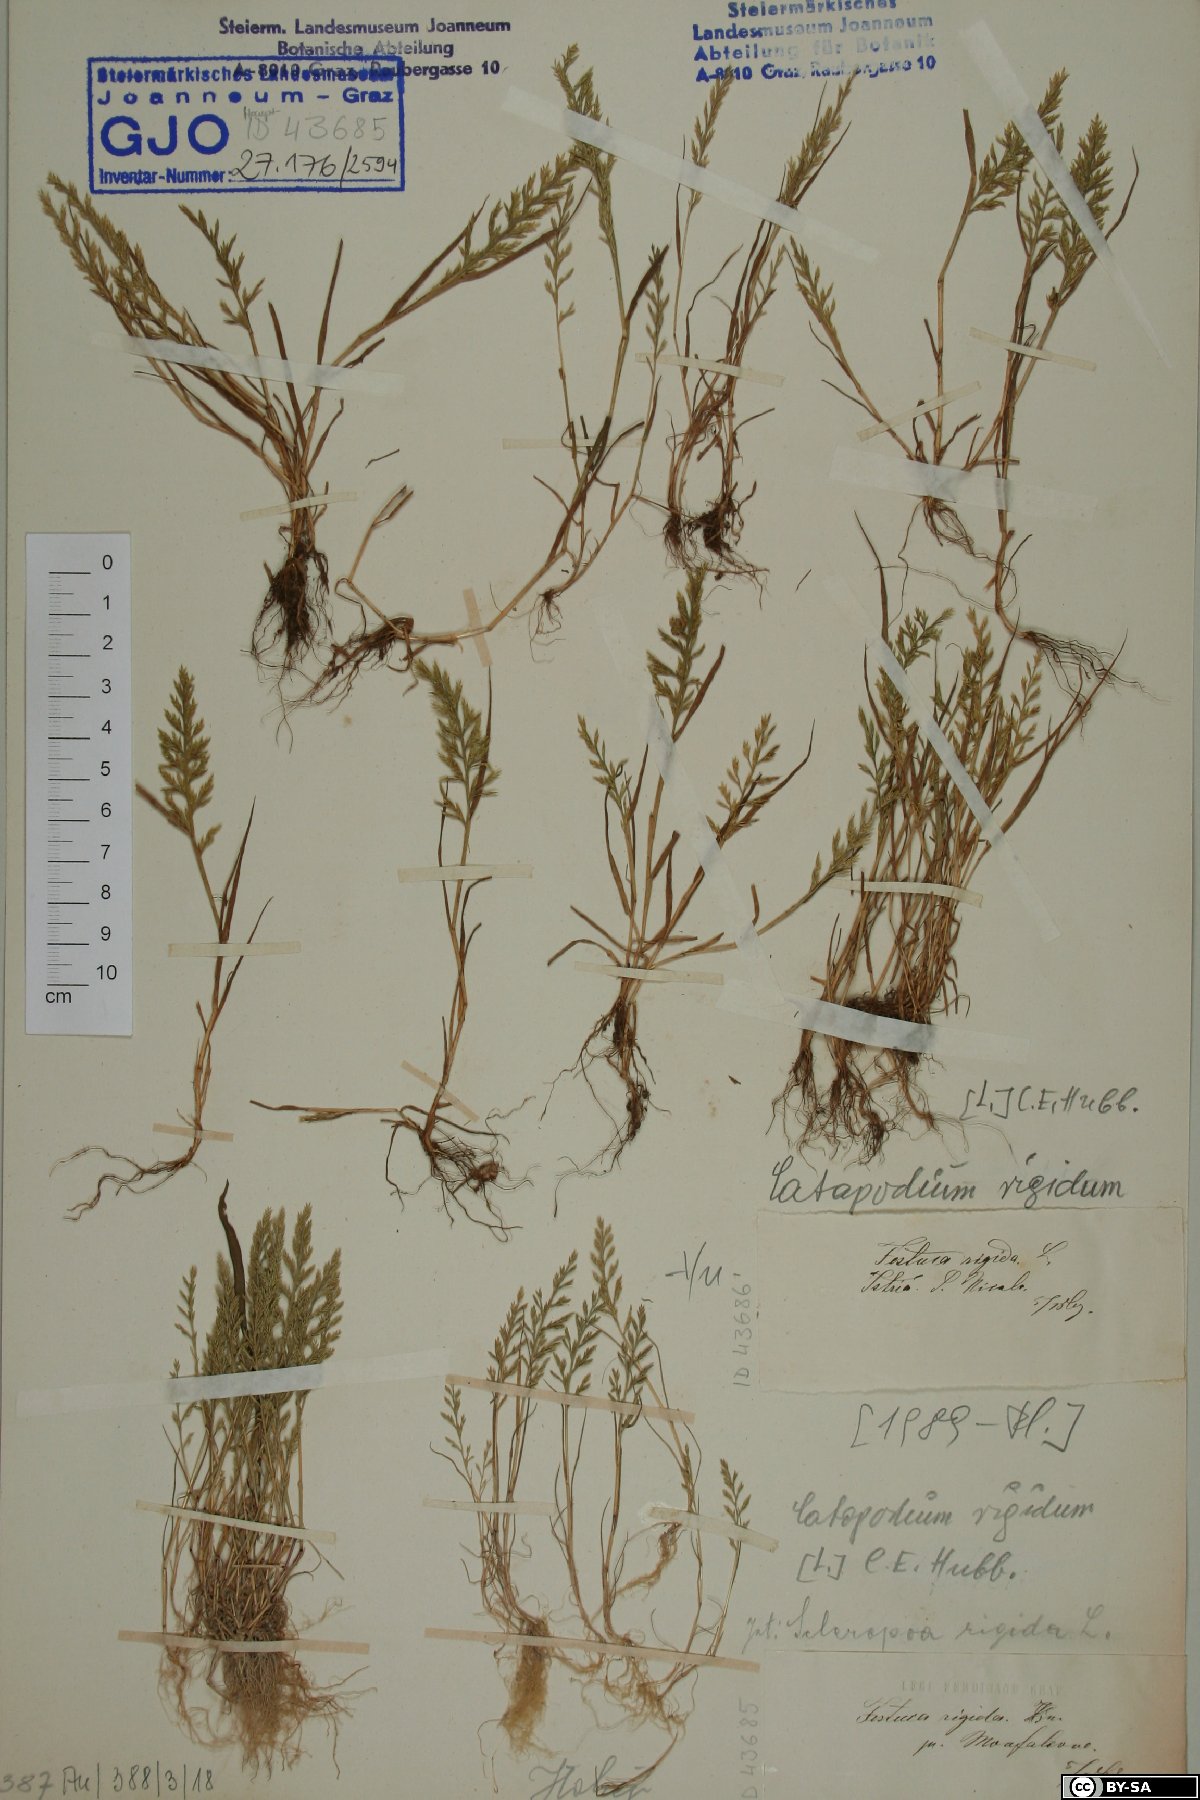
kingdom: Plantae
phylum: Tracheophyta
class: Liliopsida
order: Poales
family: Poaceae
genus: Catapodium
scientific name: Catapodium rigidum
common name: Fern-grass
